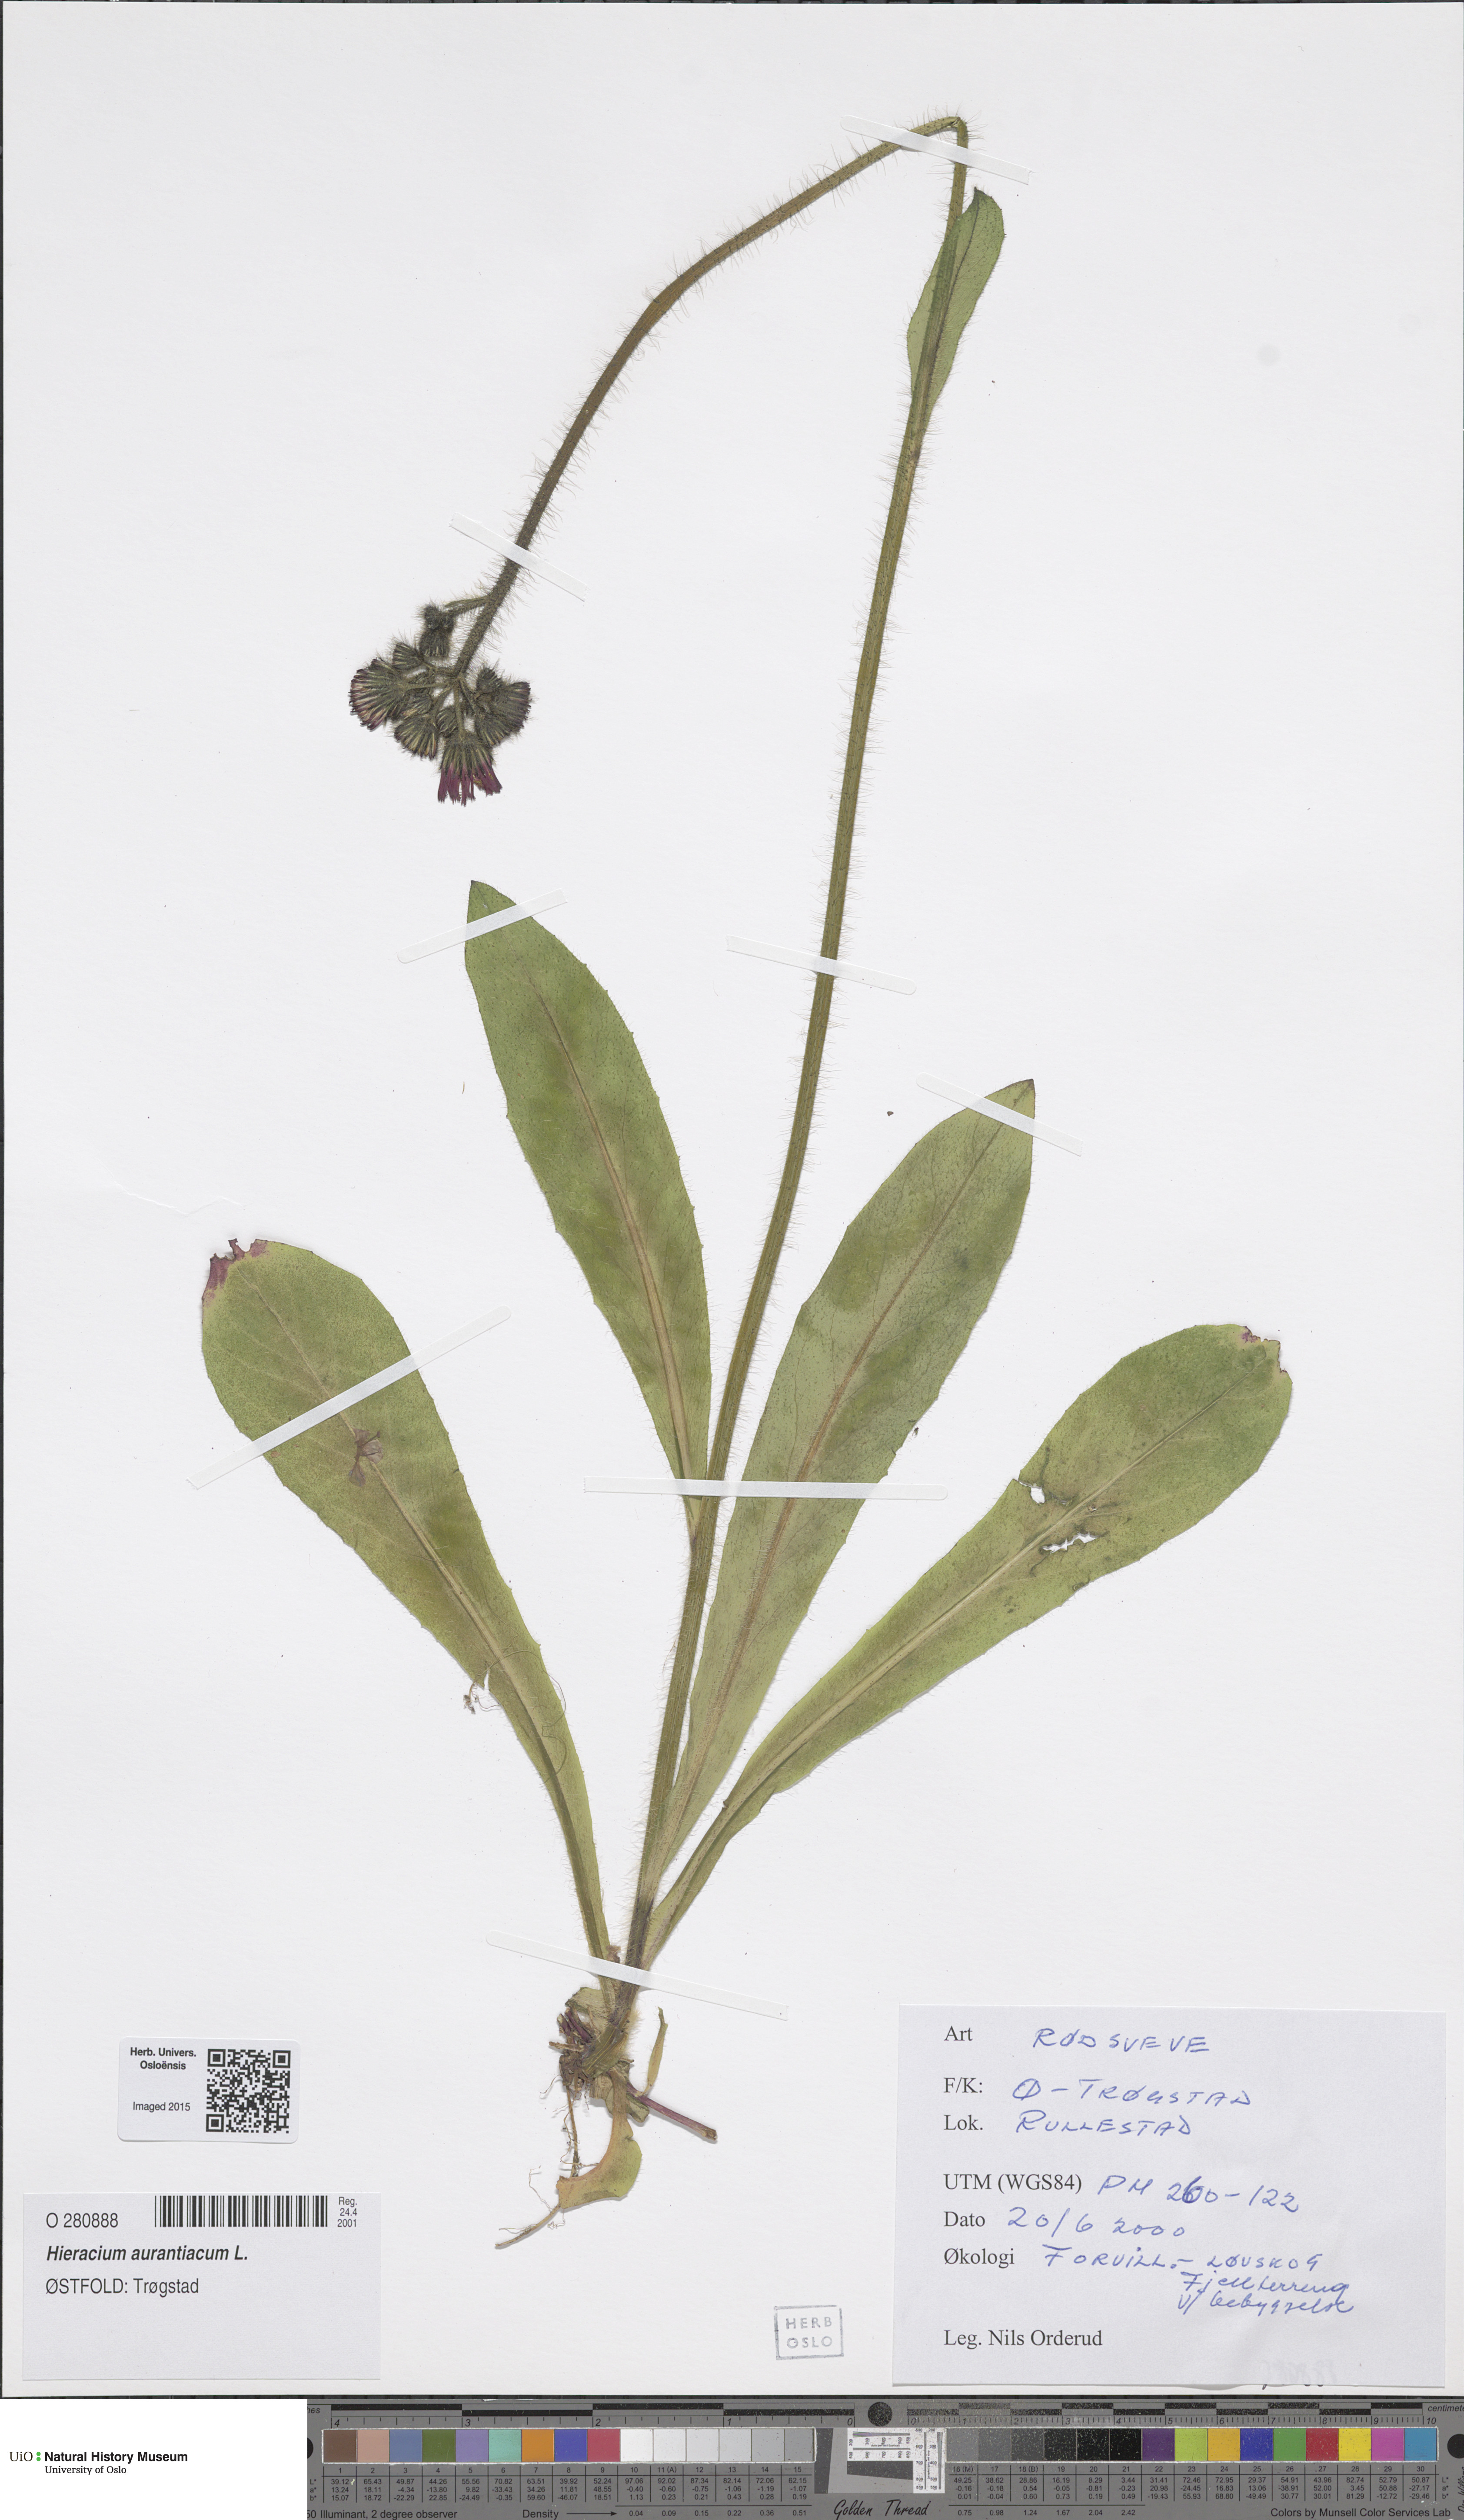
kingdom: Plantae
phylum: Tracheophyta
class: Magnoliopsida
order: Asterales
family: Asteraceae
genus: Pilosella
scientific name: Pilosella aurantiaca
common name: Fox-and-cubs
